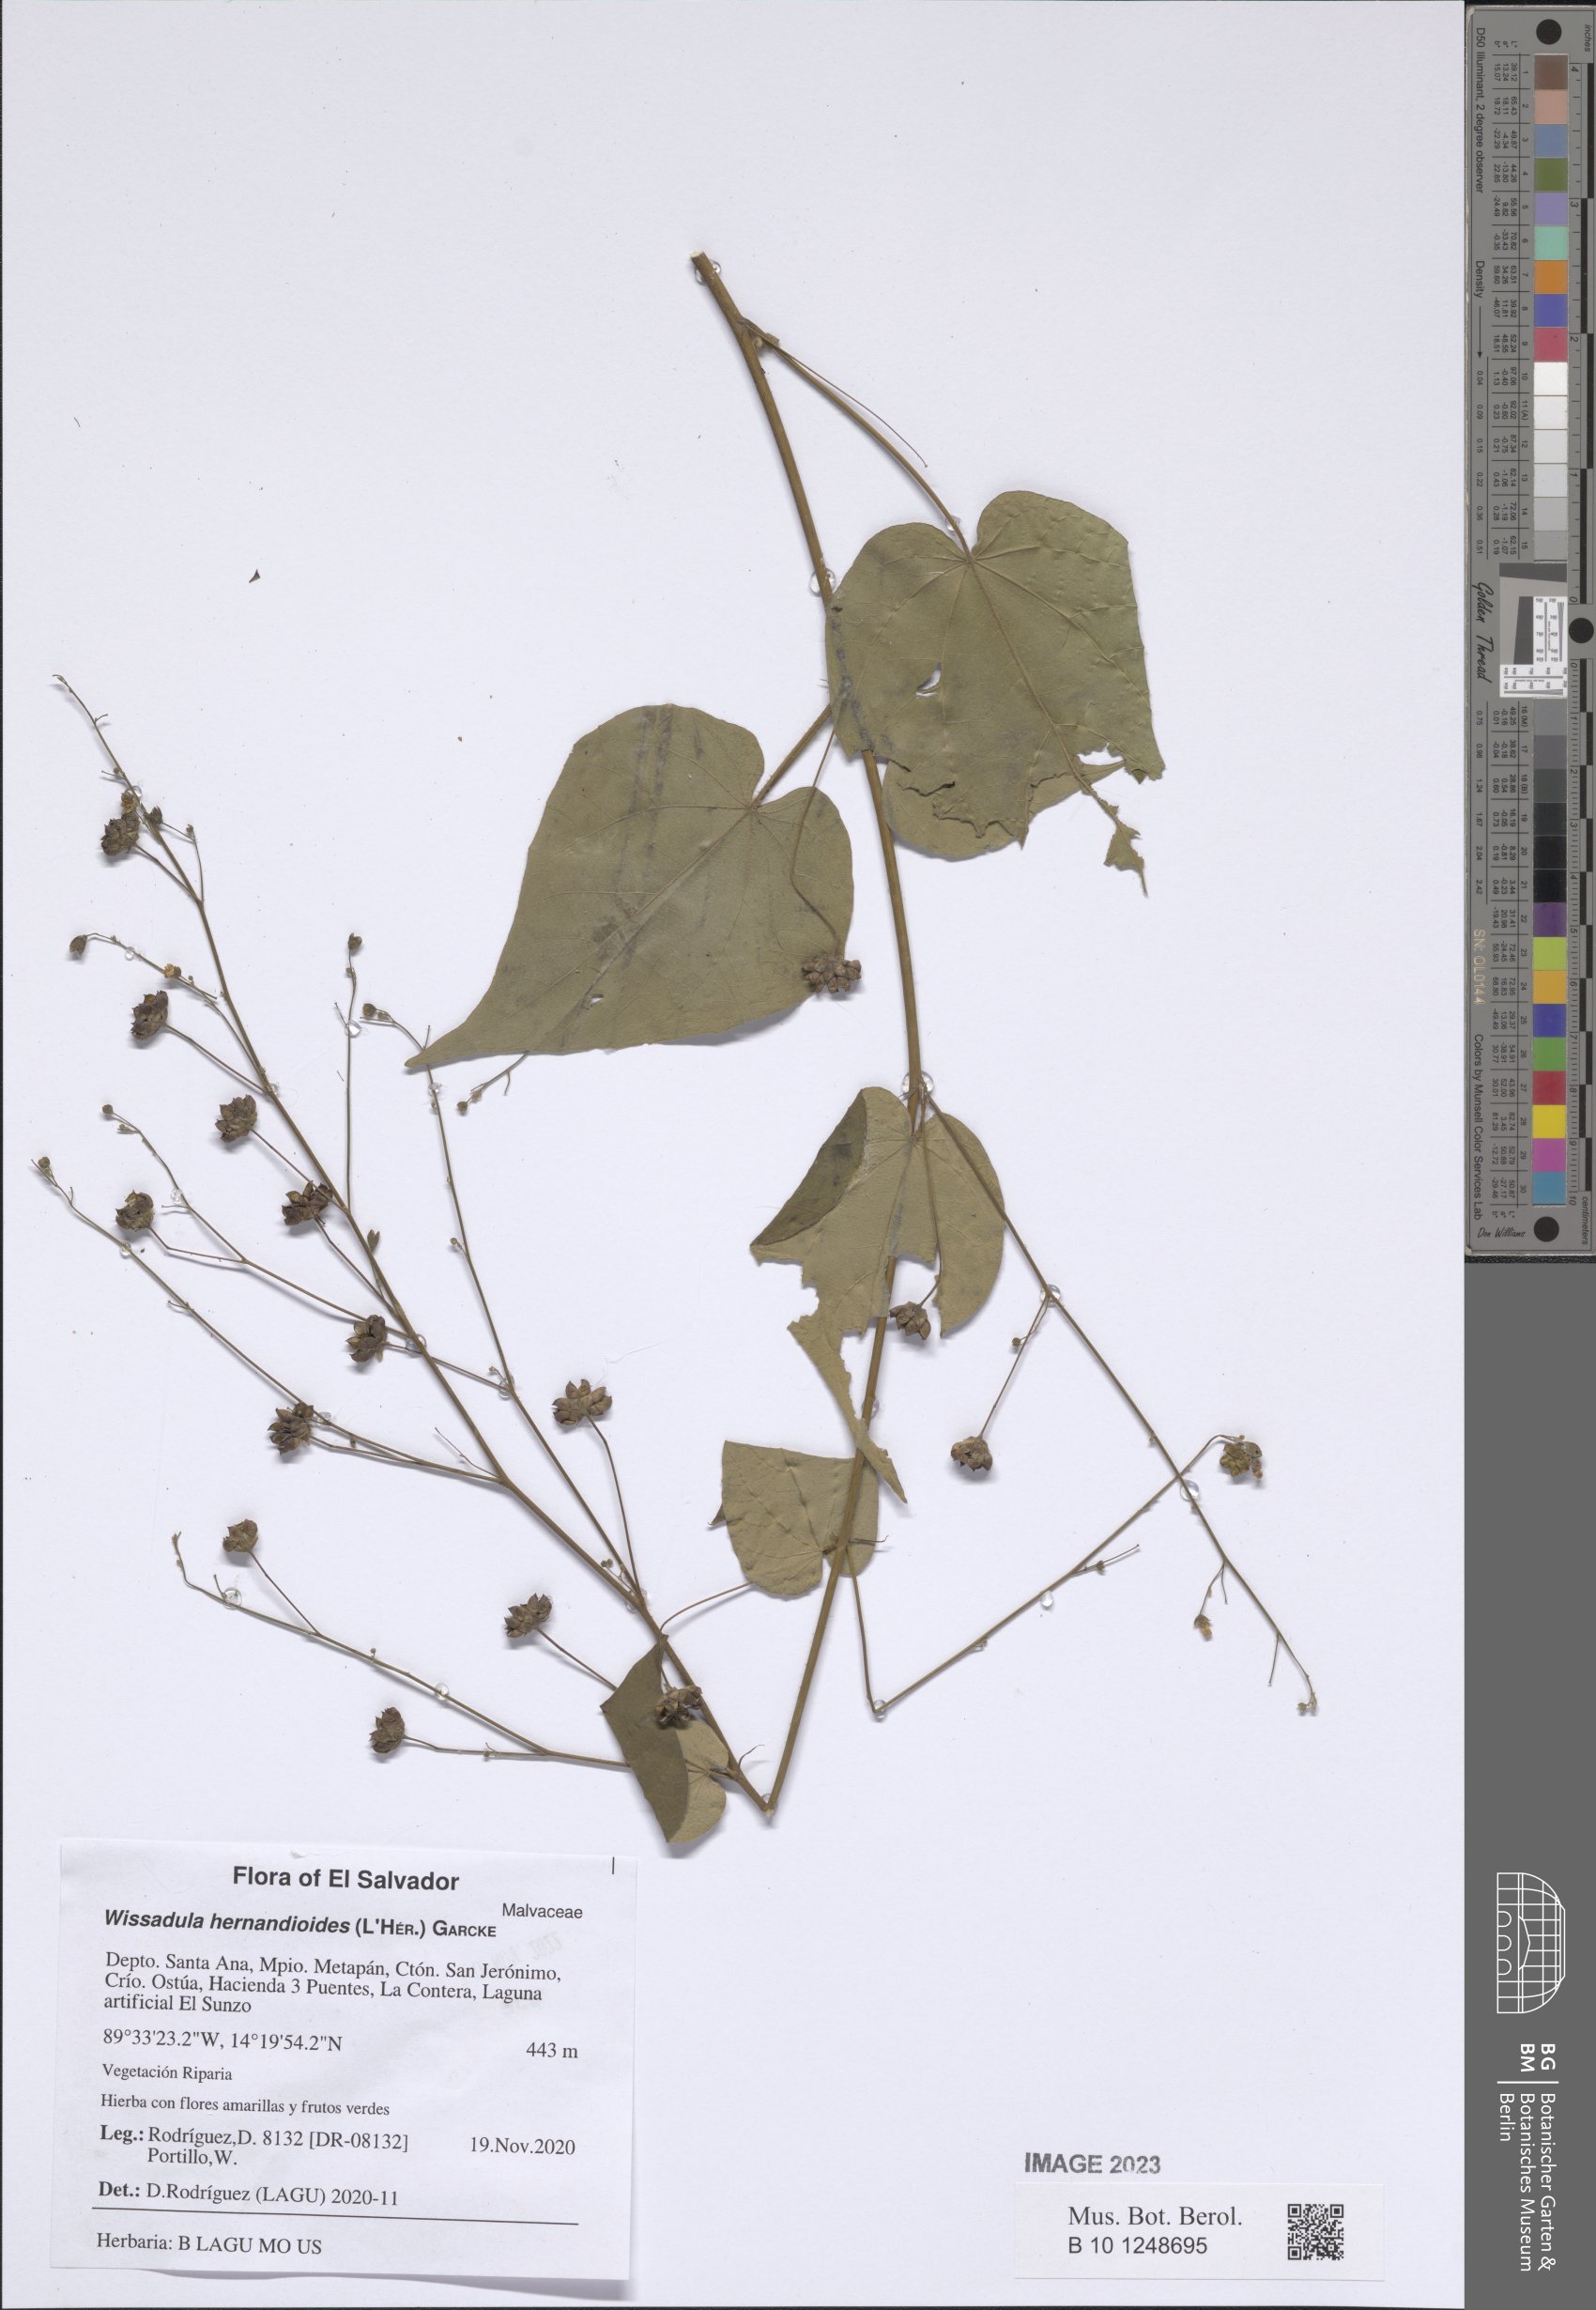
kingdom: Plantae
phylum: Tracheophyta
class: Magnoliopsida
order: Malvales
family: Malvaceae
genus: Wissadula
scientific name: Wissadula hernandioides
